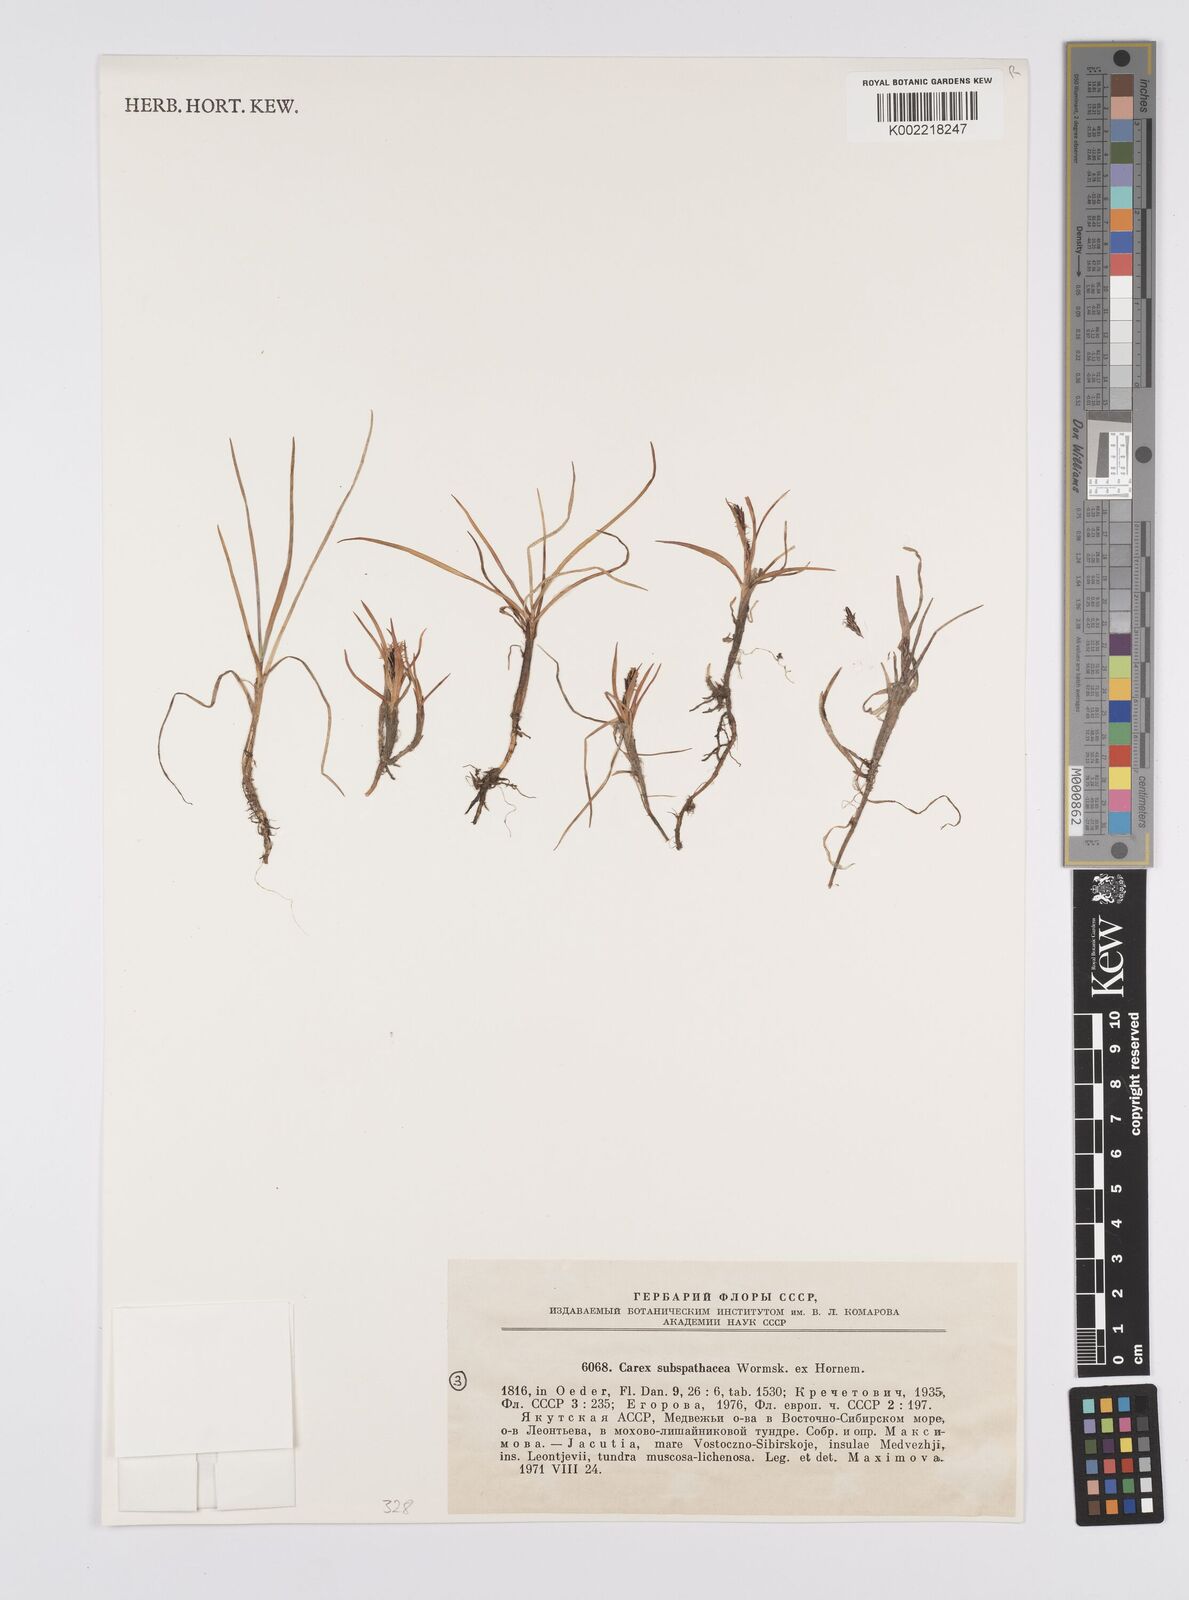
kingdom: Plantae
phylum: Tracheophyta
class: Liliopsida
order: Poales
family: Cyperaceae
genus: Carex
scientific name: Carex subspathacea
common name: Hoppner's sedge
